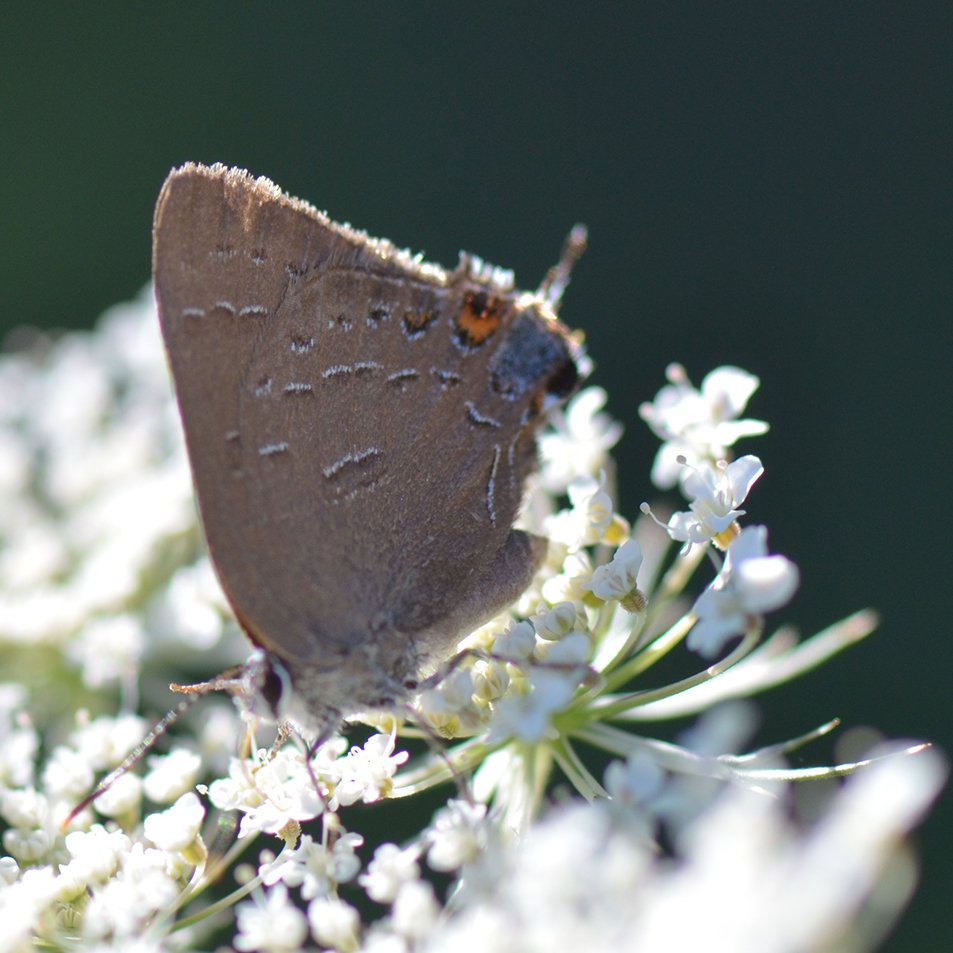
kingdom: Animalia
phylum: Arthropoda
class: Insecta
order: Lepidoptera
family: Lycaenidae
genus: Satyrium
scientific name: Satyrium calanus
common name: Banded Hairstreak
